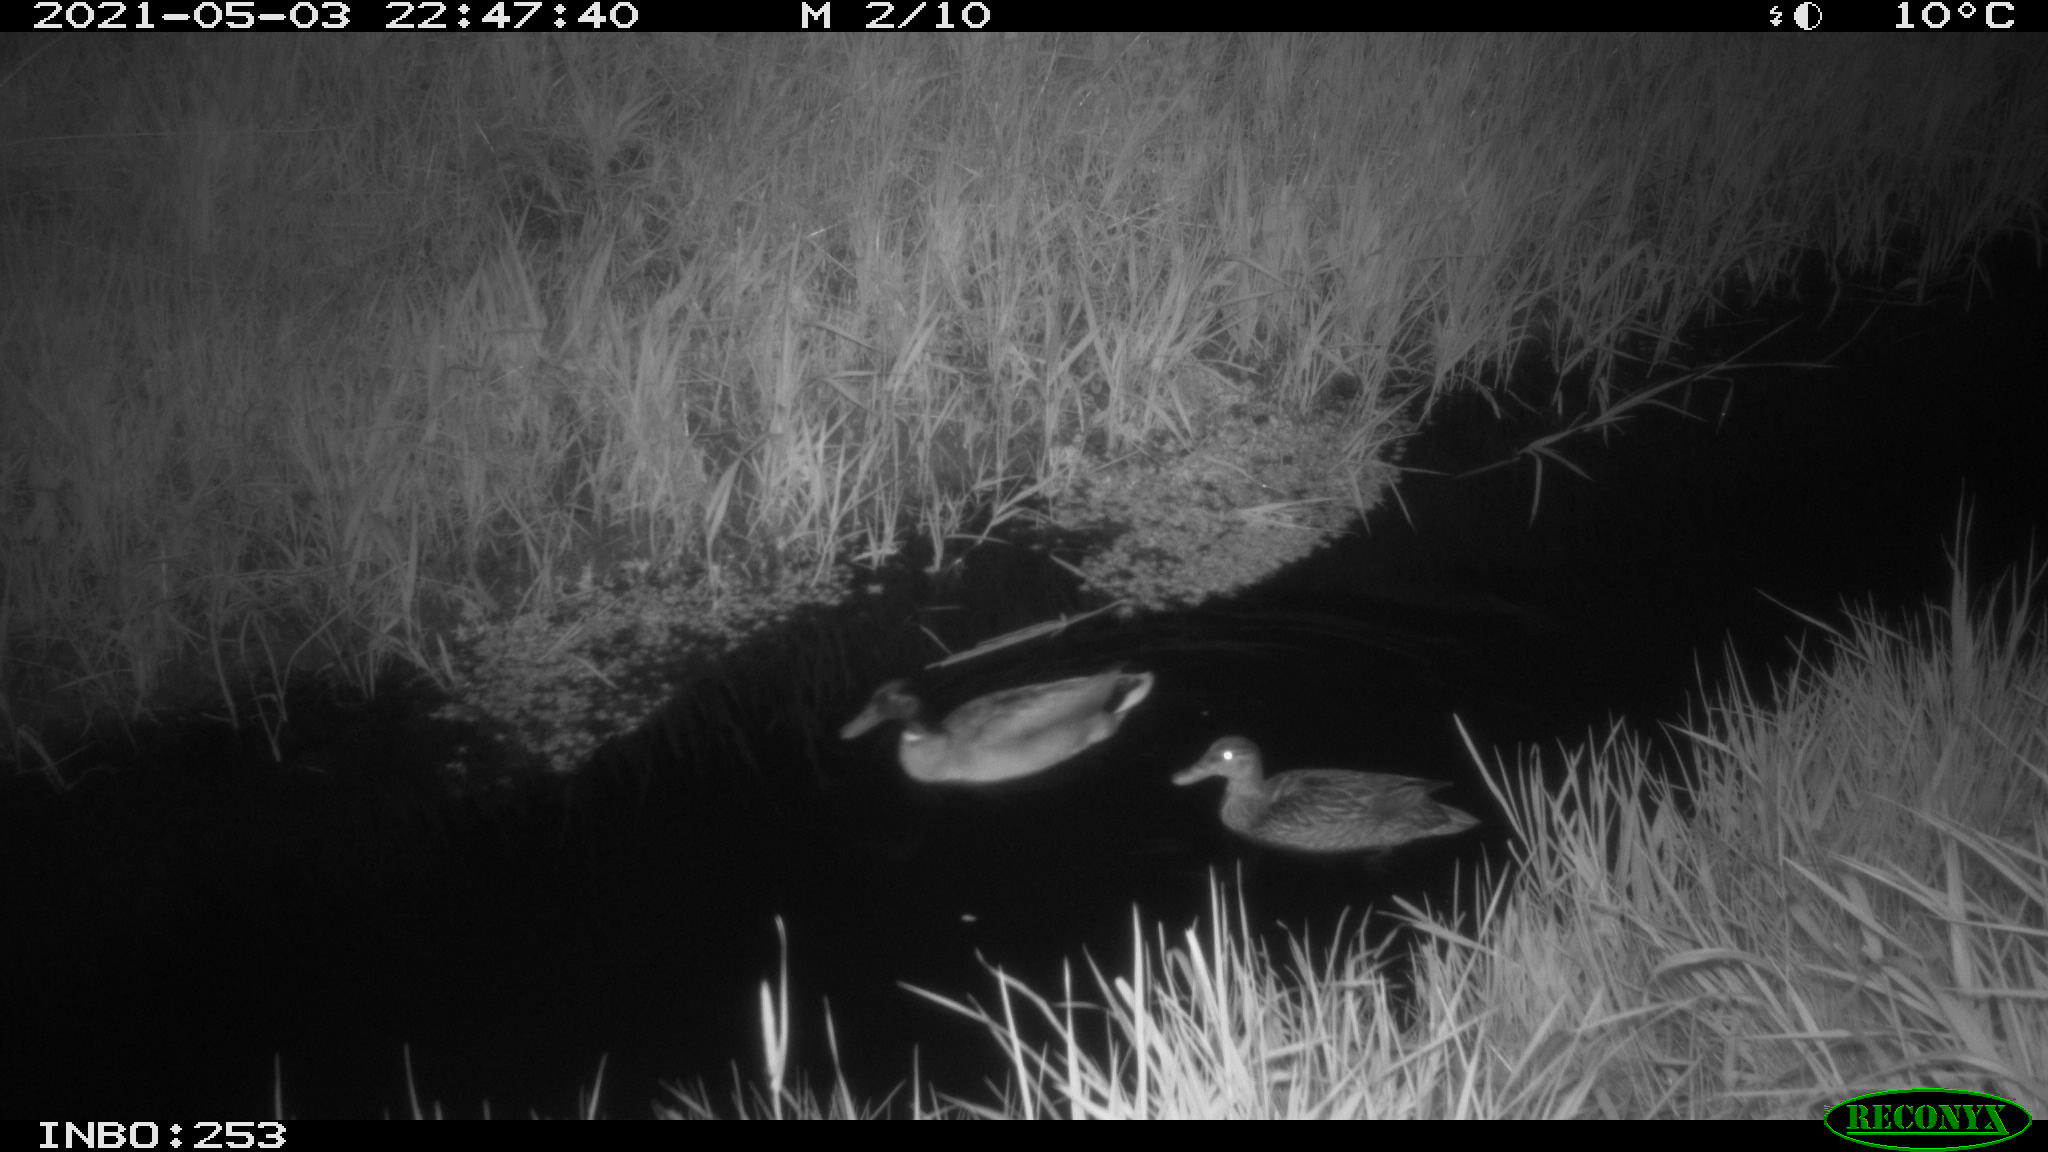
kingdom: Animalia
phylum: Chordata
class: Aves
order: Anseriformes
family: Anatidae
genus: Anas
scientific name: Anas platyrhynchos
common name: Mallard
